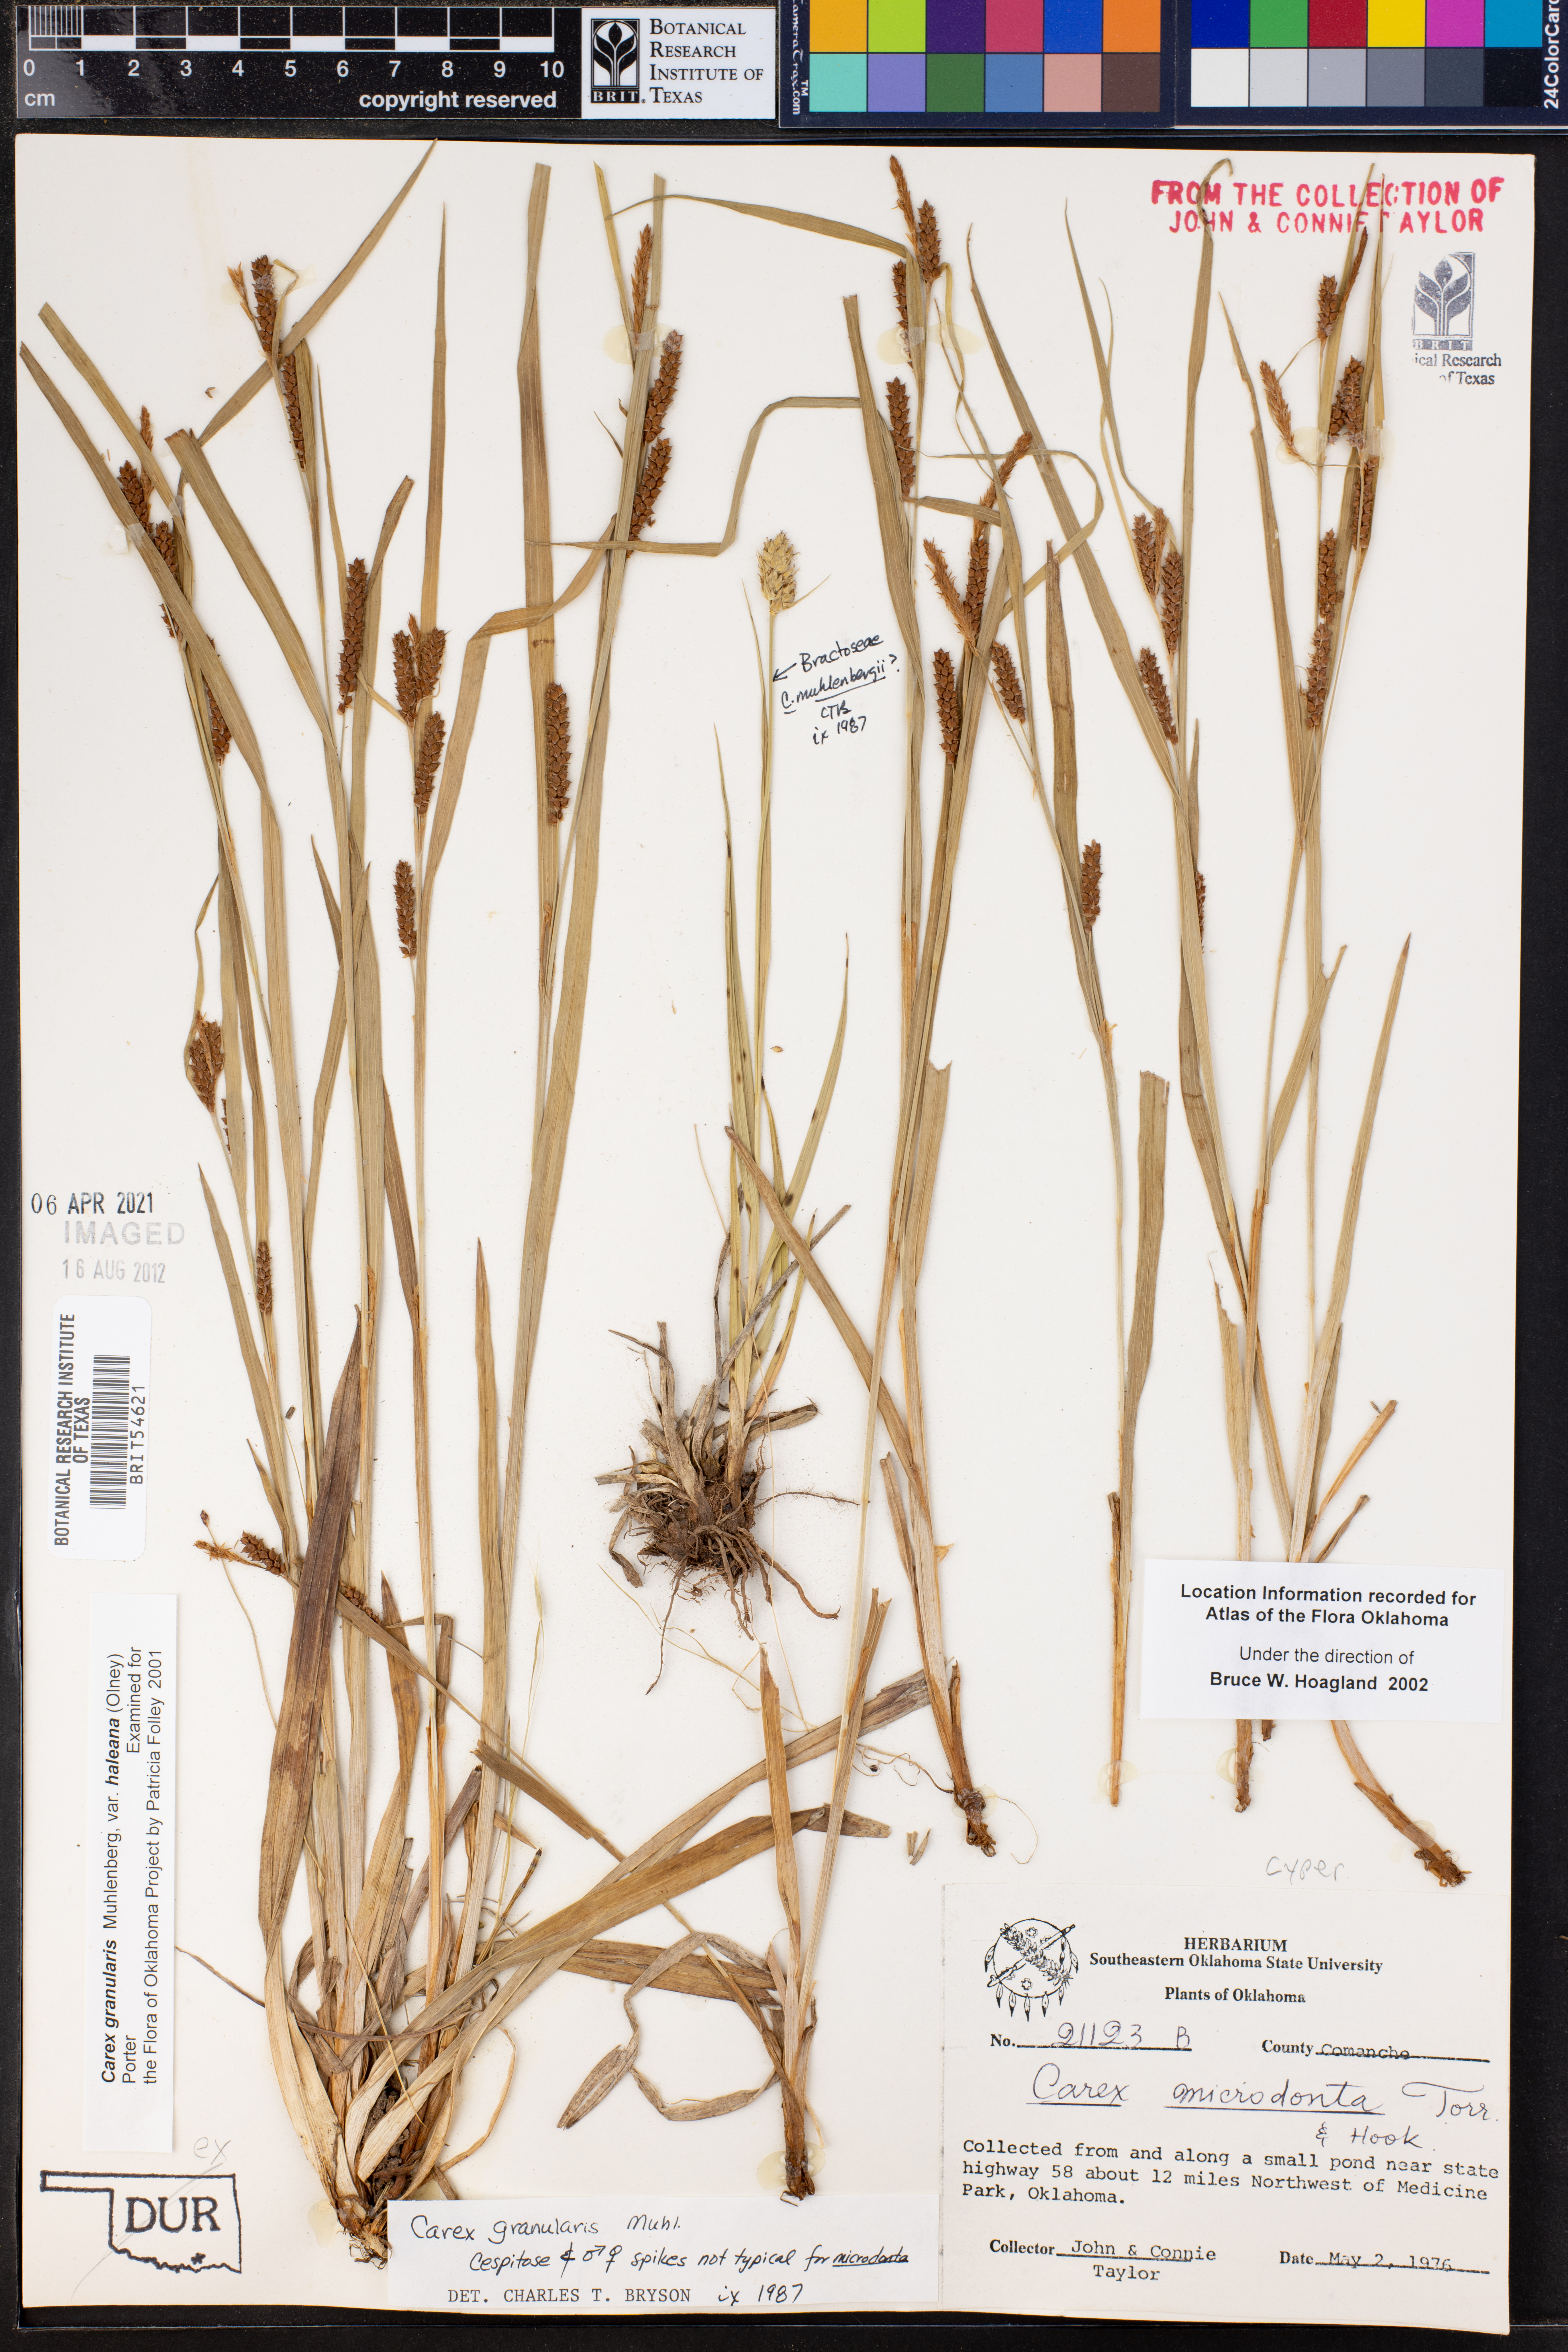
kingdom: Plantae
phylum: Tracheophyta
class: Liliopsida
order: Poales
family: Cyperaceae
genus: Carex
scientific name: Carex granularis
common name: Granular sedge
